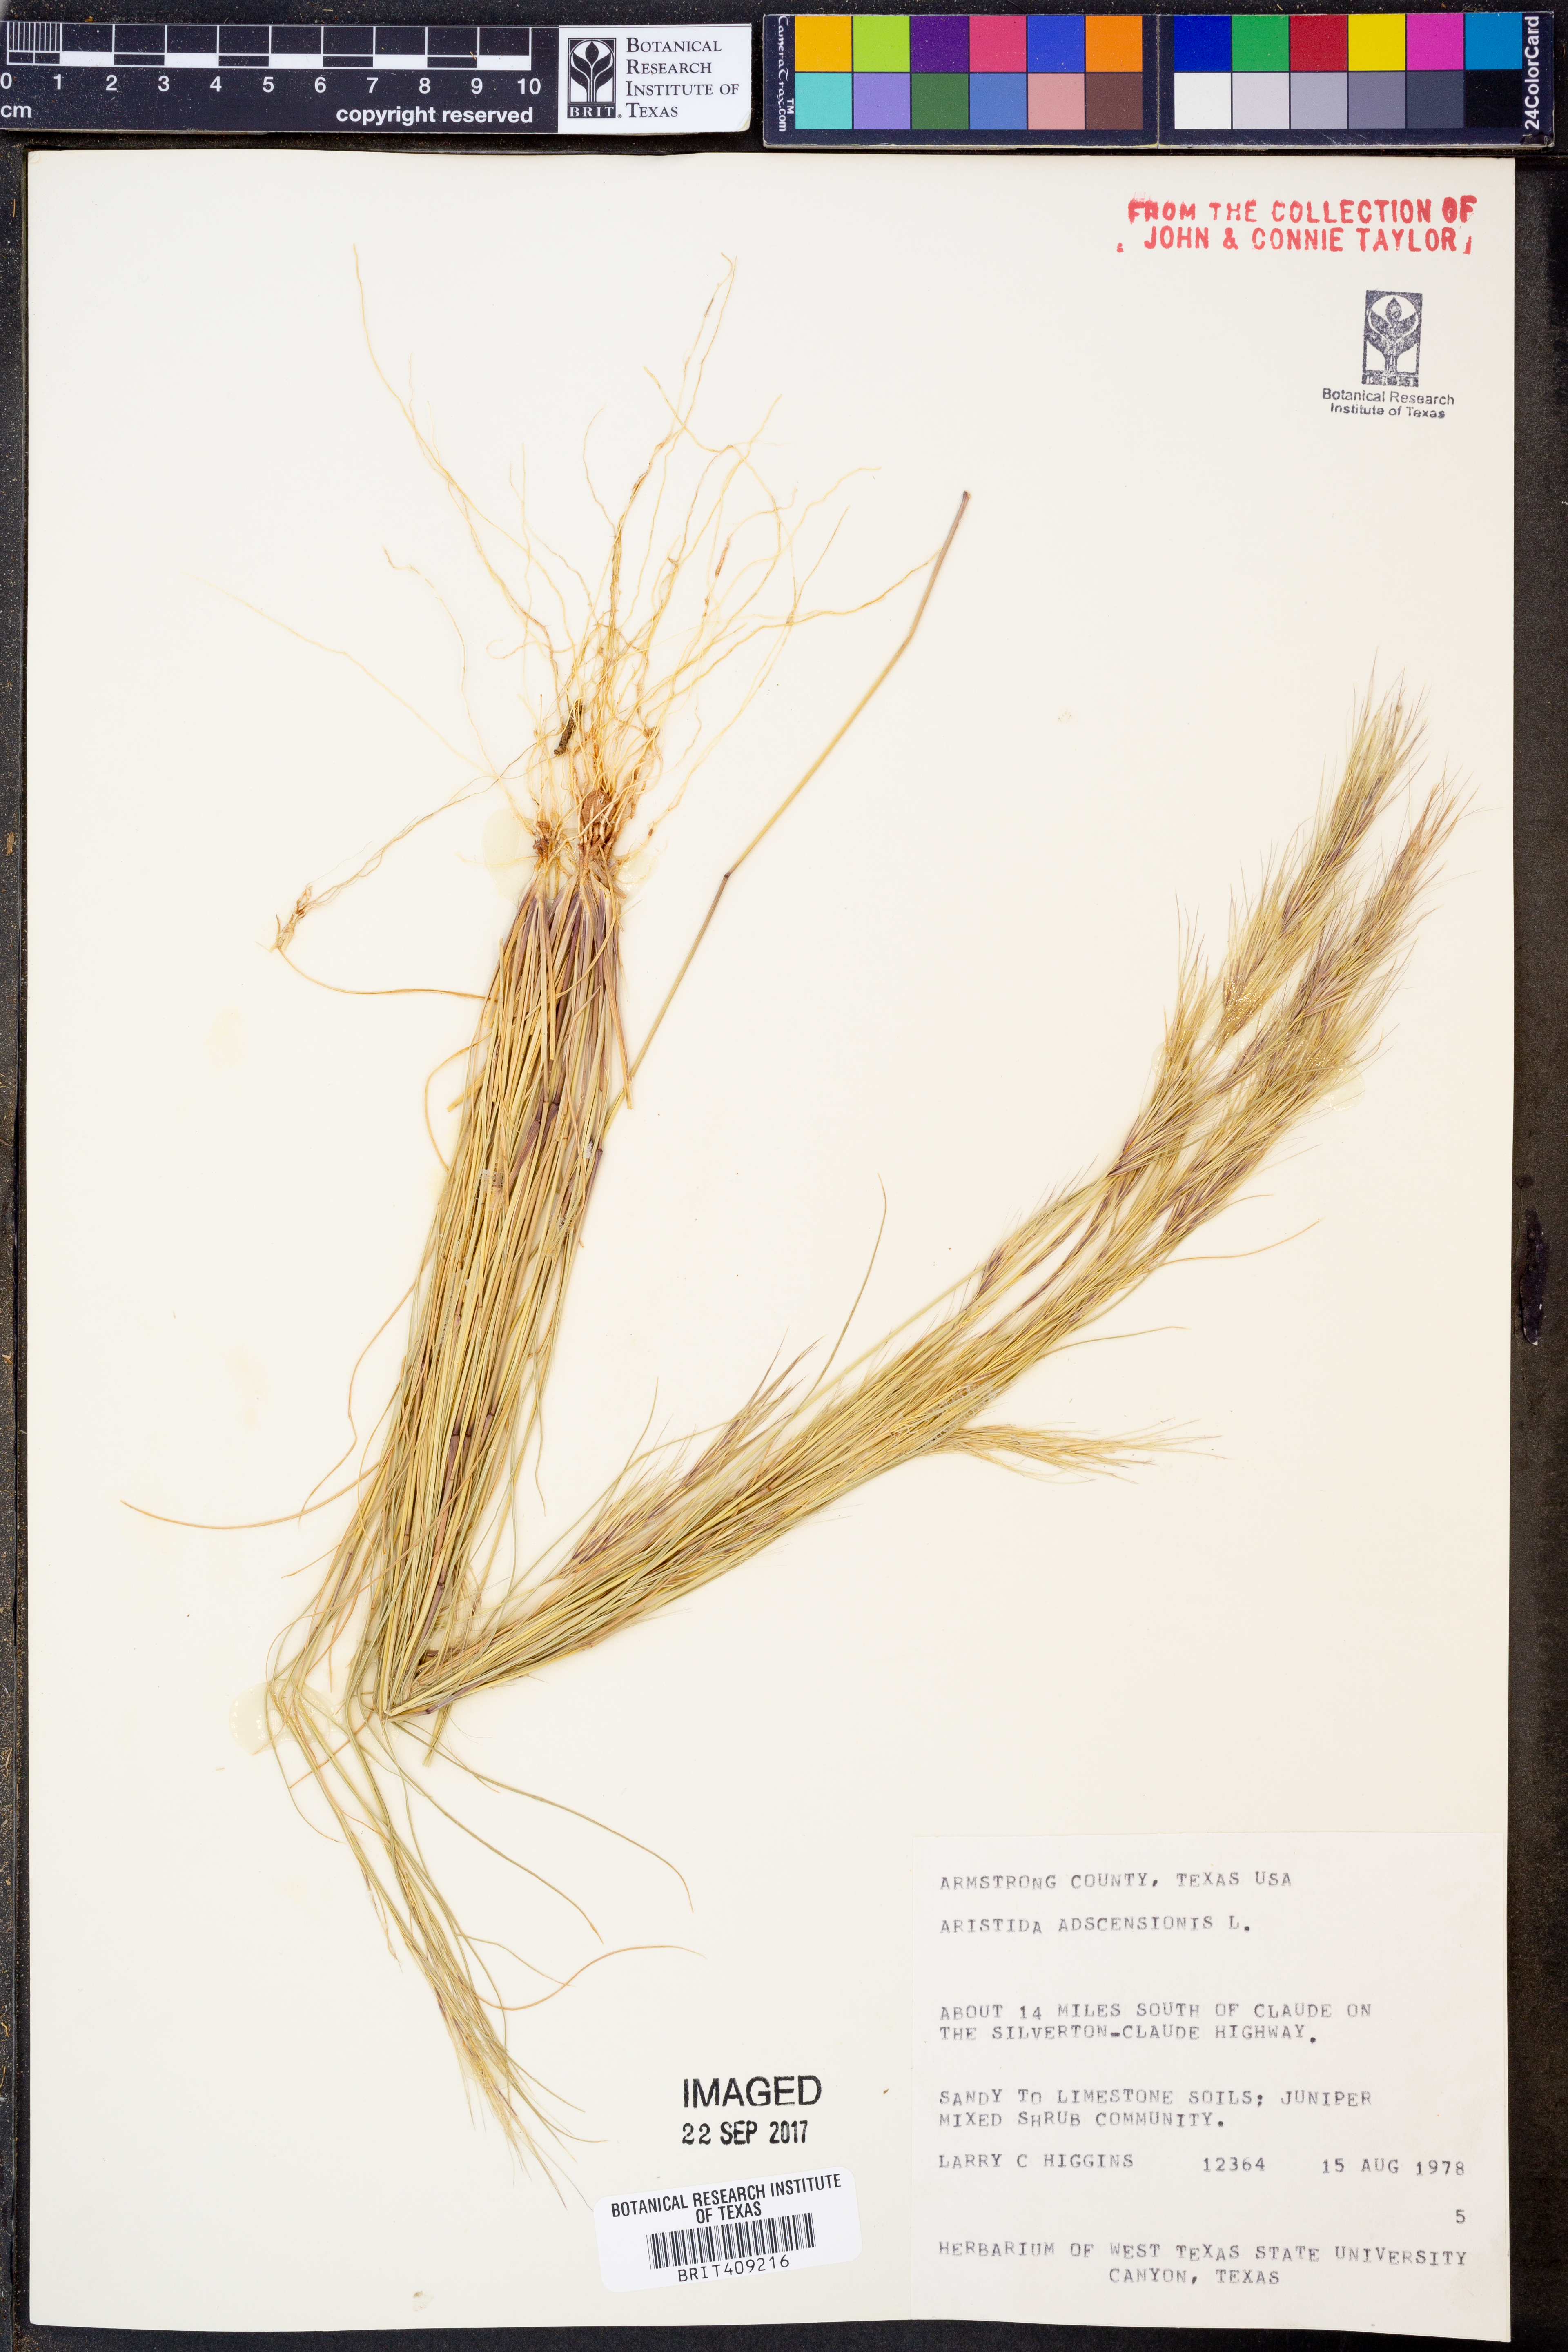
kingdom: Plantae
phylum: Tracheophyta
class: Liliopsida
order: Poales
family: Poaceae
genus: Aristida
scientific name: Aristida adscensionis
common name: Sixweeks threeawn
